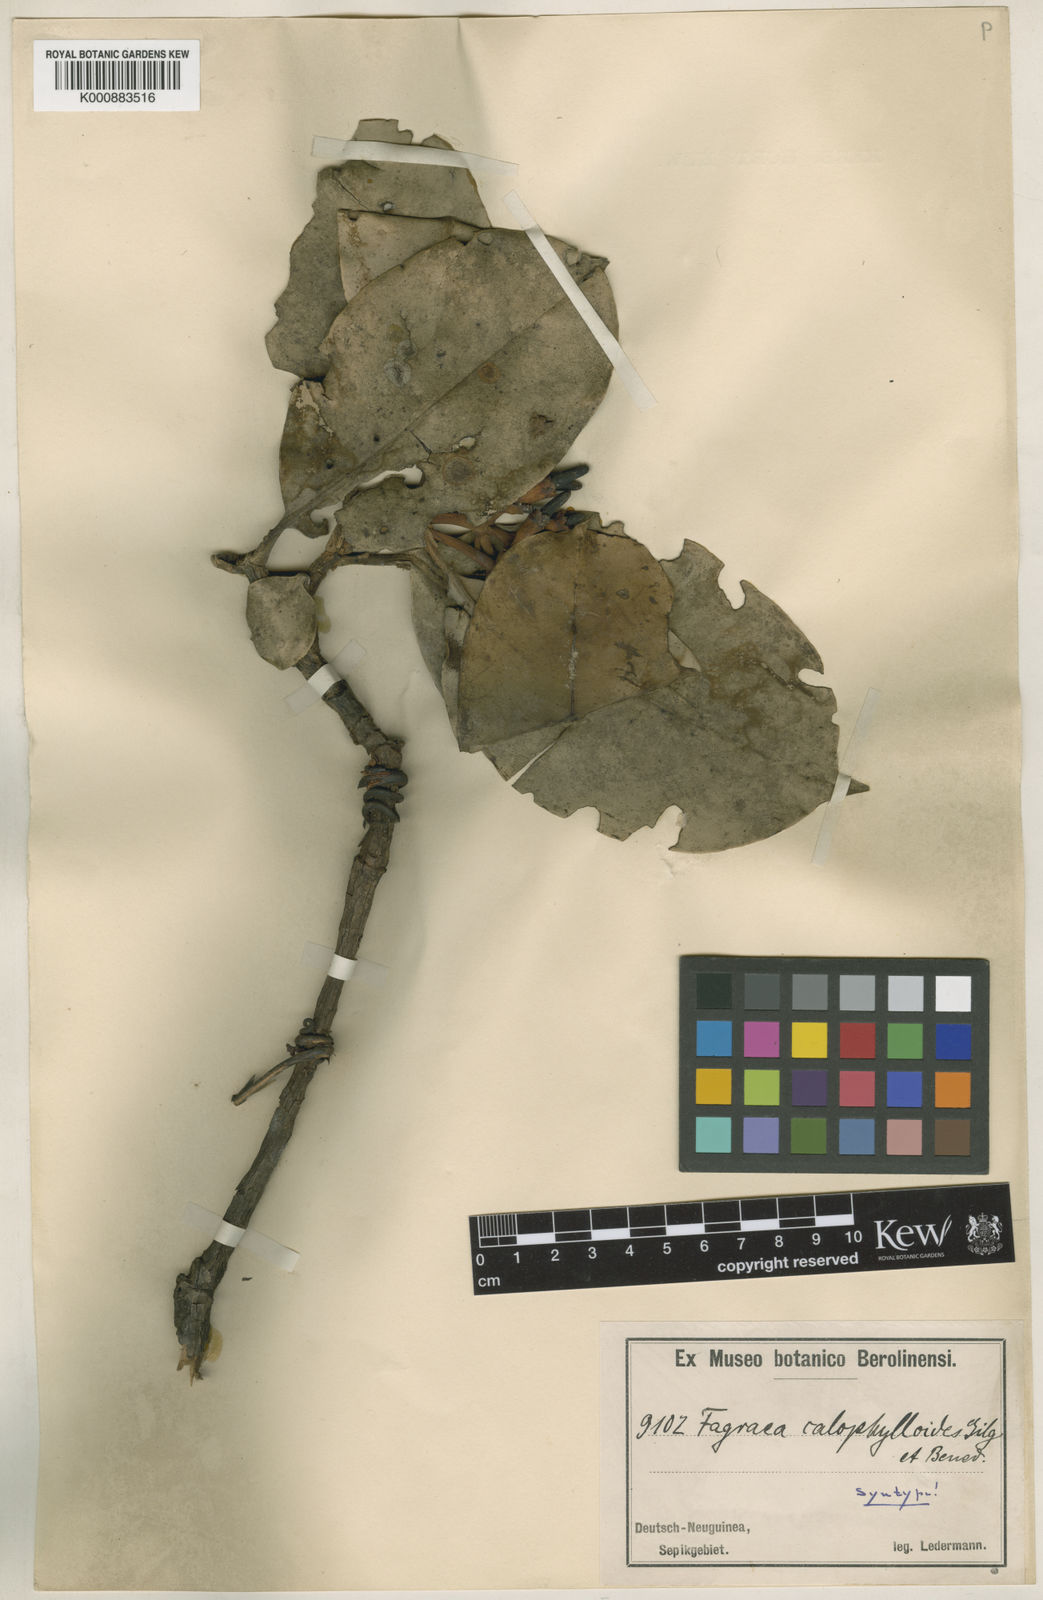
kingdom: Plantae
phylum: Tracheophyta
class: Magnoliopsida
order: Gentianales
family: Gentianaceae
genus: Fagraea
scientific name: Fagraea berteroana
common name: Cape jitta
